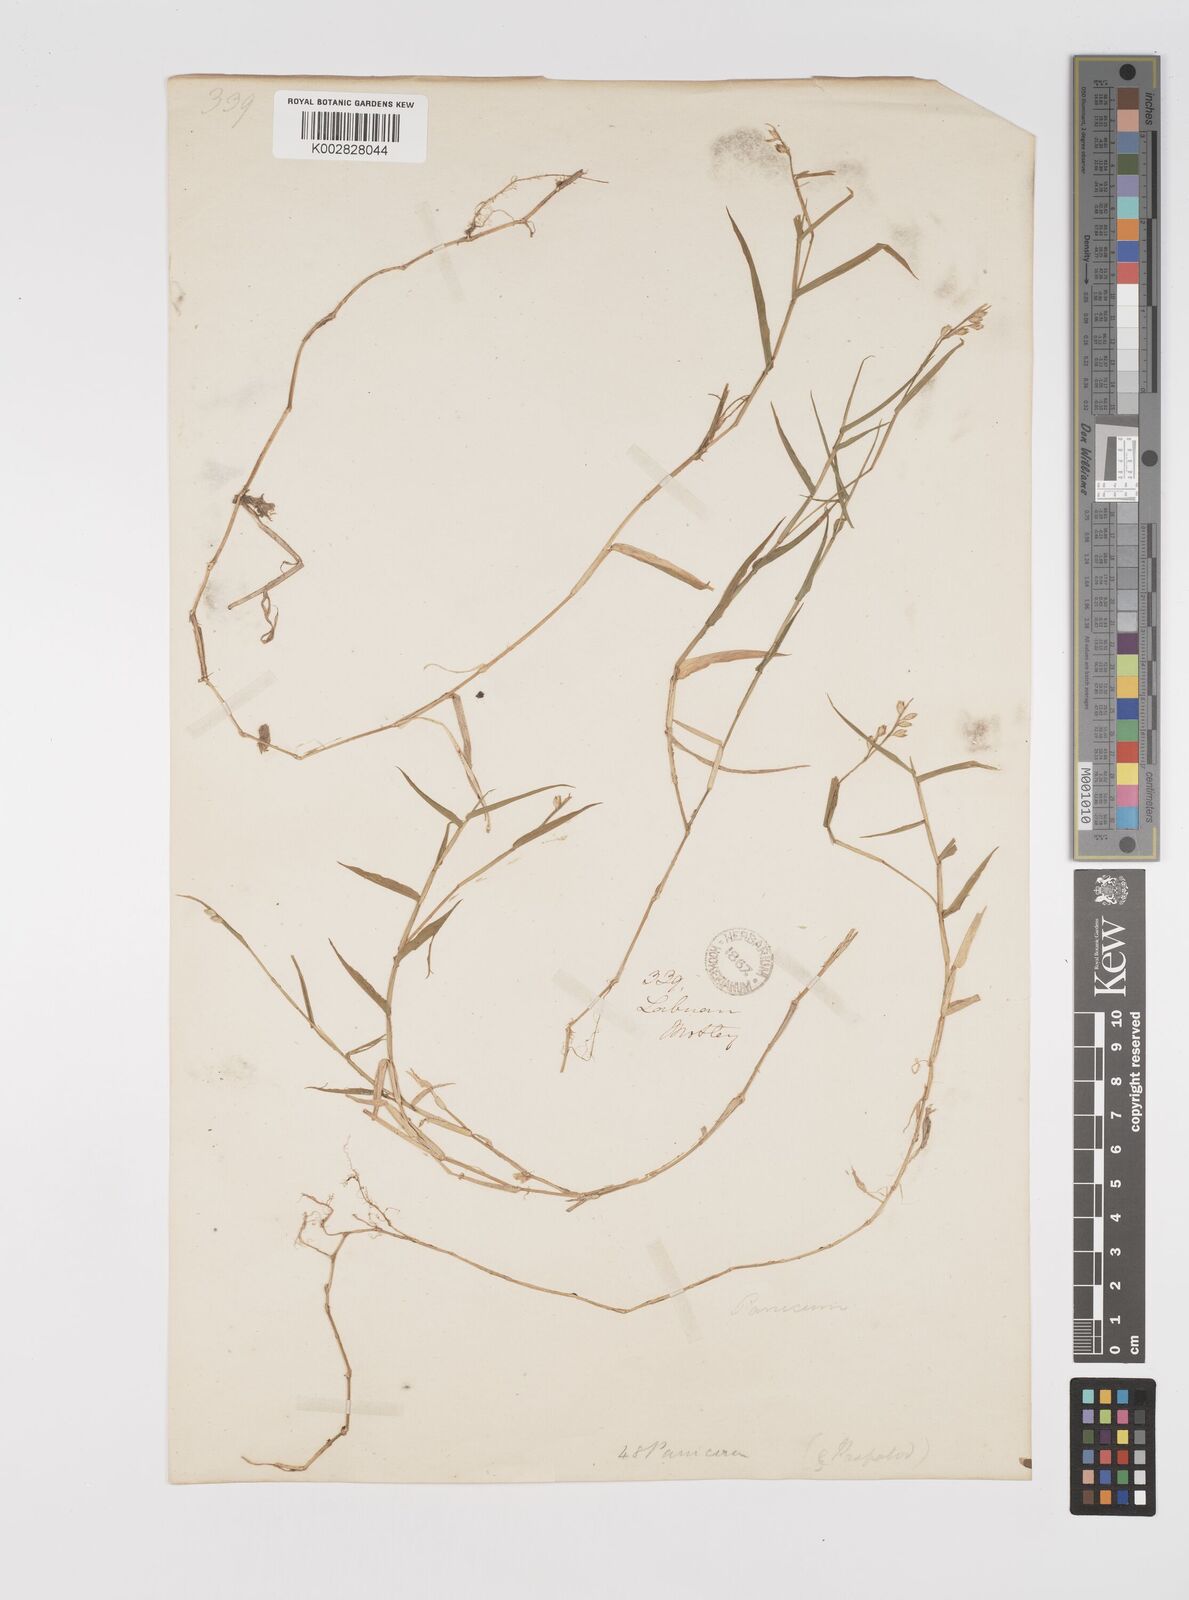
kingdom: Plantae
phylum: Tracheophyta
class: Liliopsida
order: Poales
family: Poaceae
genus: Acroceras
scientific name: Acroceras munroanum
